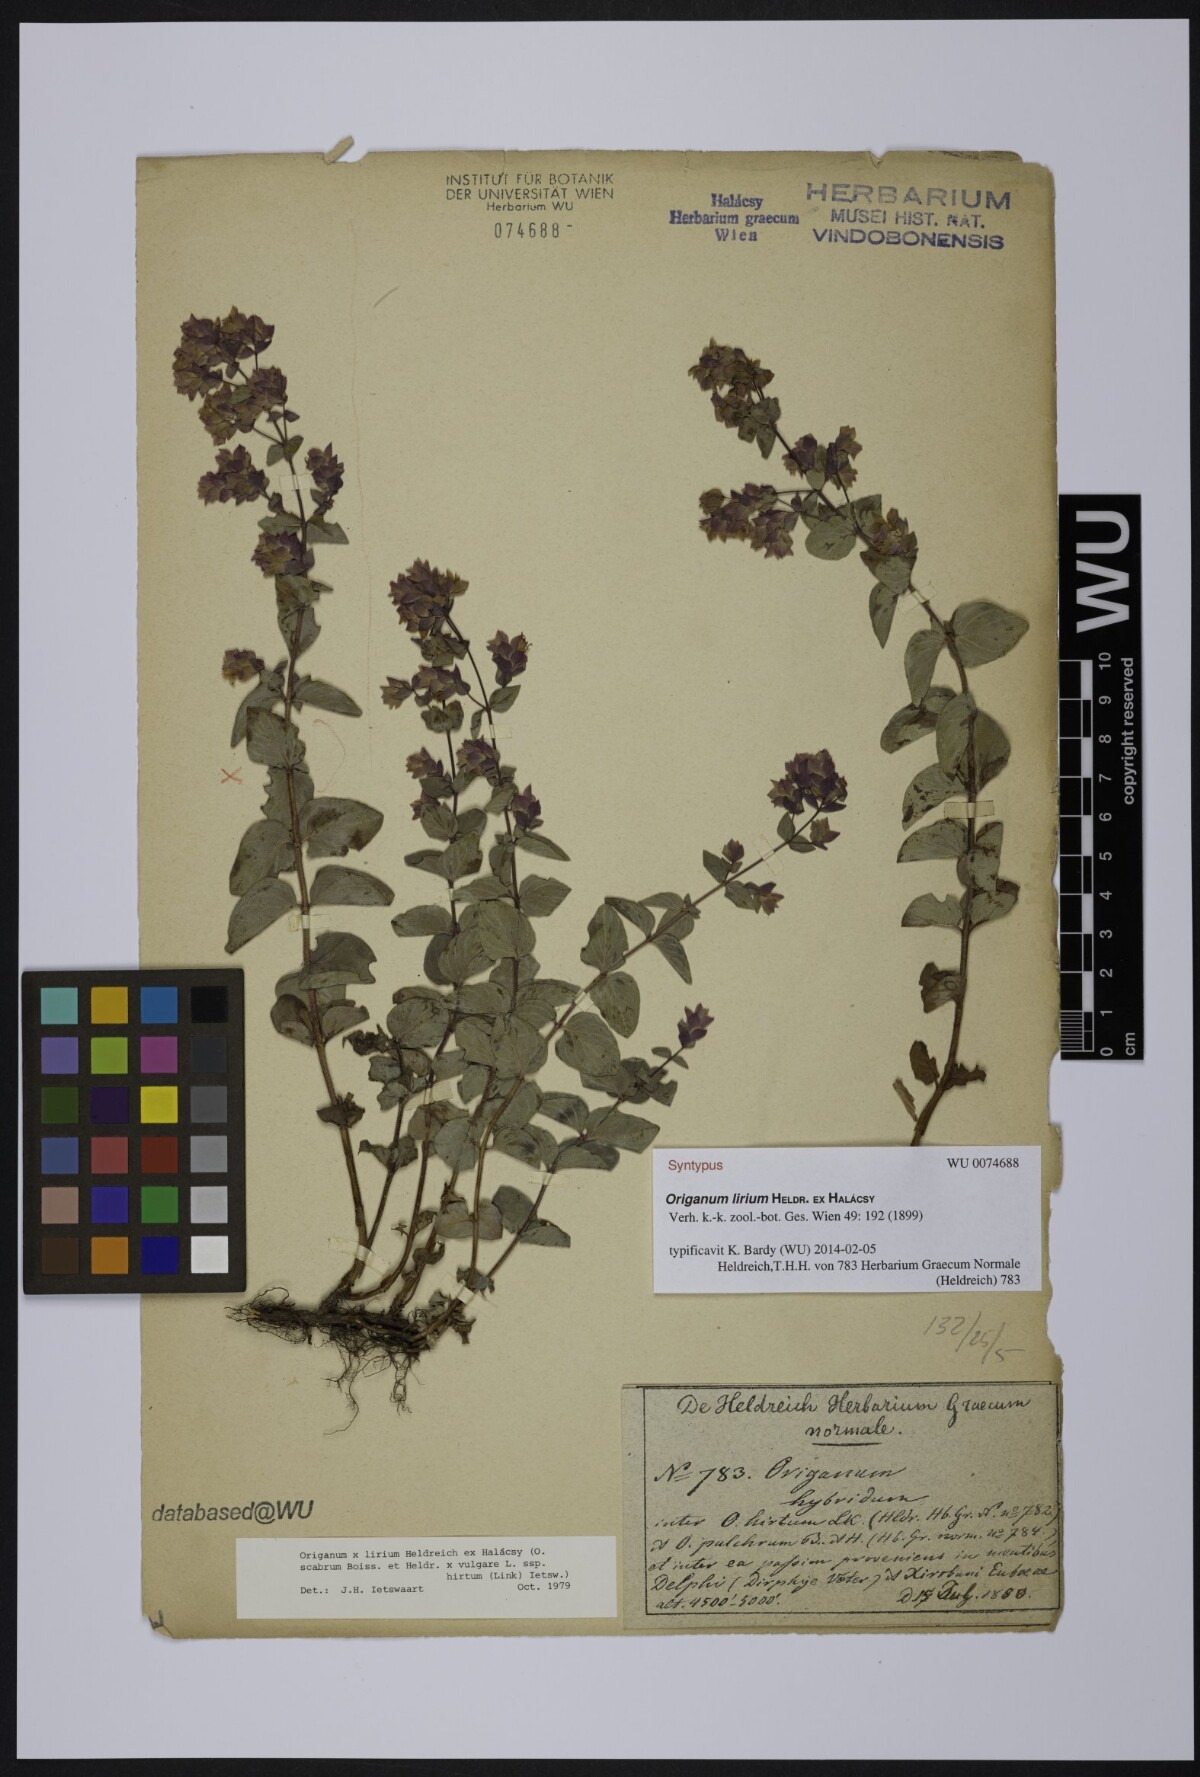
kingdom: Plantae
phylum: Tracheophyta
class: Magnoliopsida
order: Lamiales
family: Lamiaceae
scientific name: Lamiaceae
